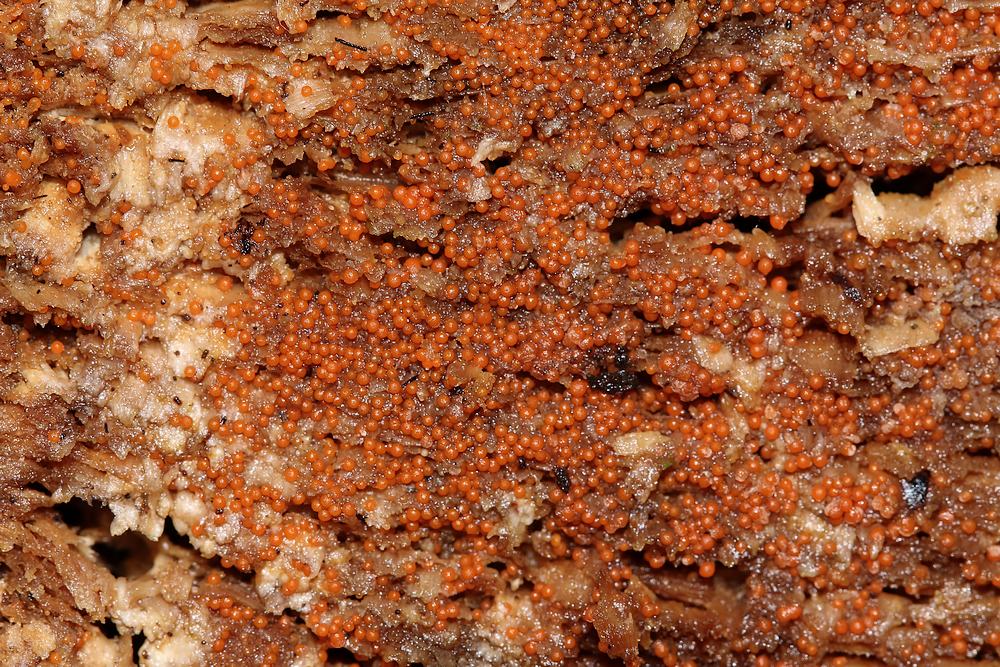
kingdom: Fungi
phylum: Ascomycota
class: Sordariomycetes
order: Hypocreales
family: Nectriaceae
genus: Hydropisphaera
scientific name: Hydropisphaera peziza
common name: skålformet gyldenkerne
